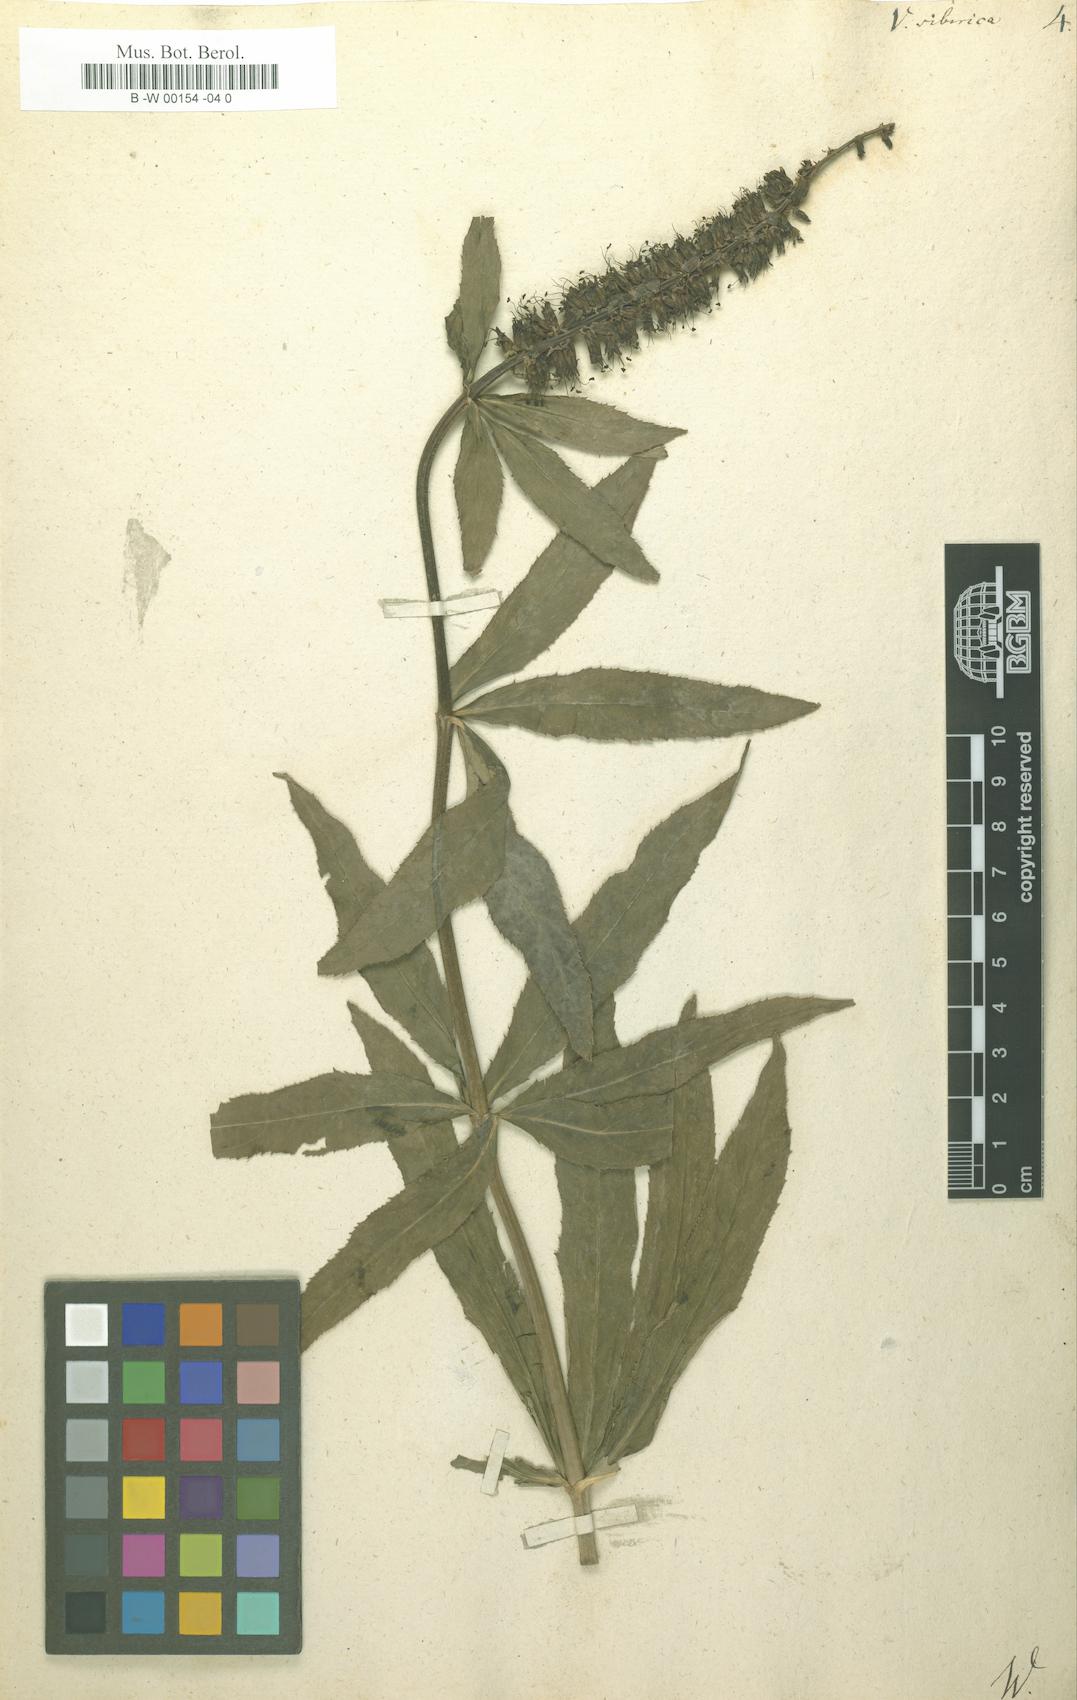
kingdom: Plantae
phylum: Tracheophyta
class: Magnoliopsida
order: Lamiales
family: Plantaginaceae
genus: Veronicastrum
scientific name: Veronicastrum sibiricum
